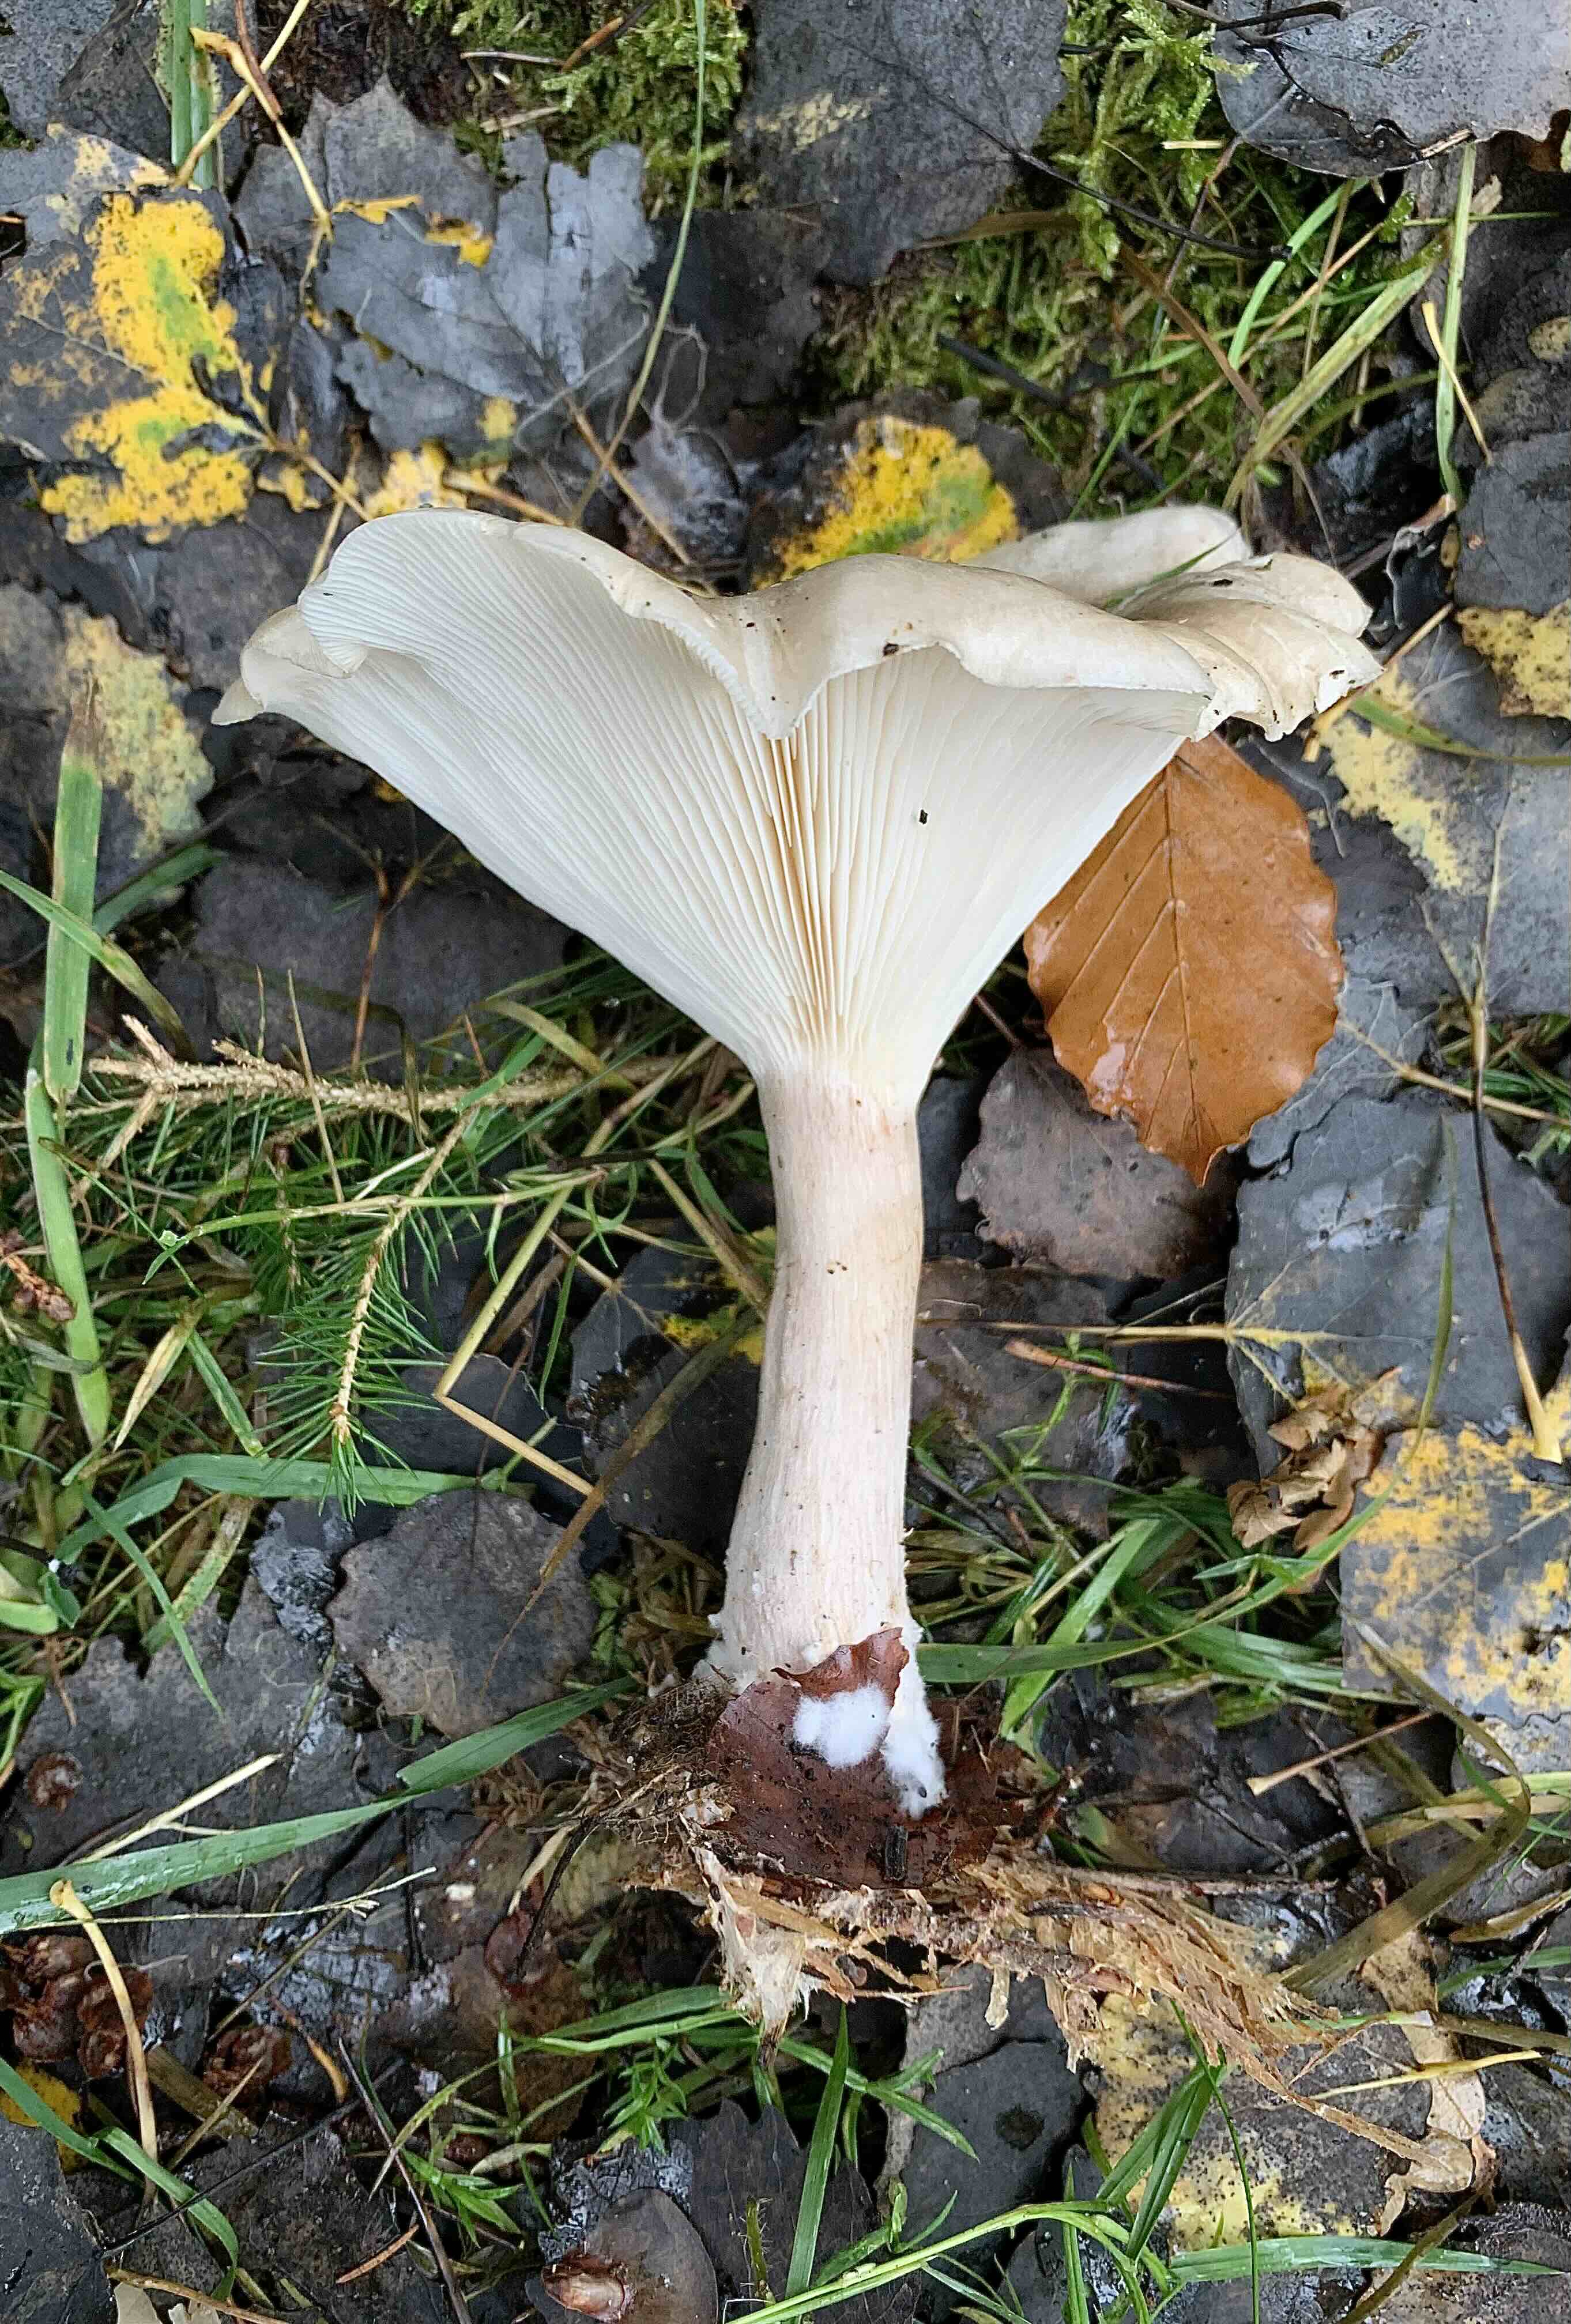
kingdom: Fungi
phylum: Basidiomycota
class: Agaricomycetes
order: Agaricales
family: Hygrophoraceae
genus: Ampulloclitocybe
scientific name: Ampulloclitocybe clavipes
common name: køllefod
